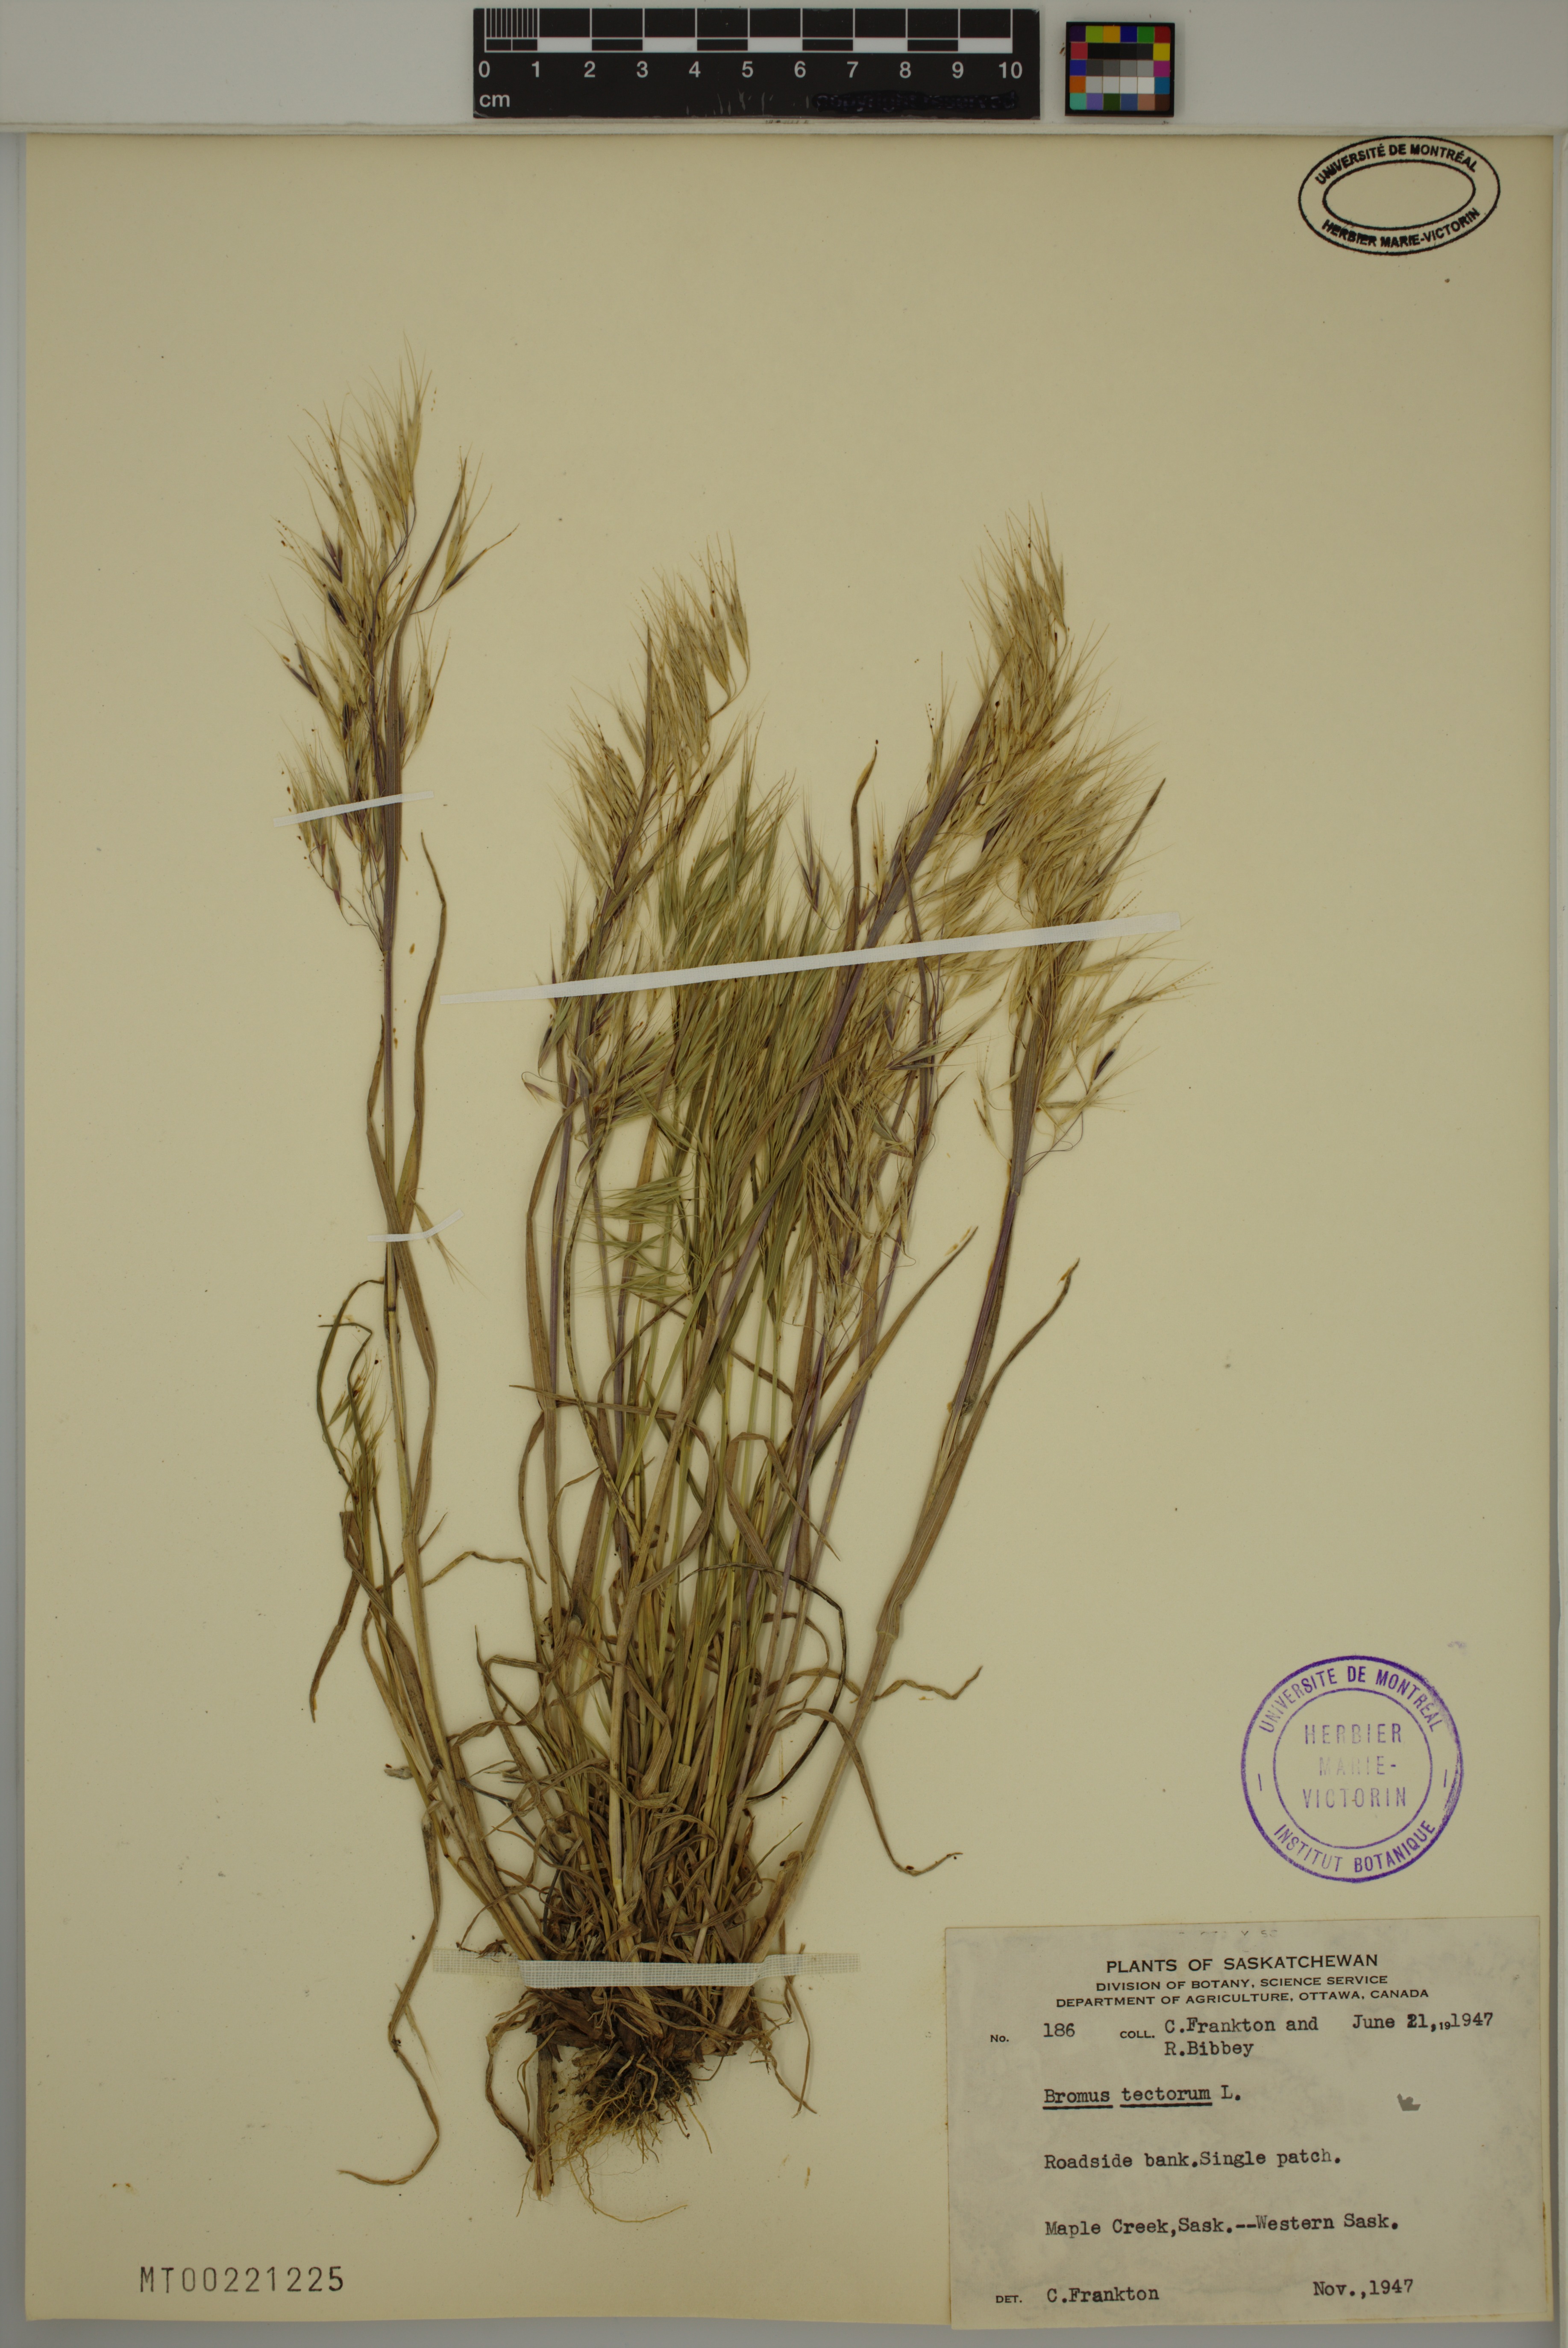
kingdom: Plantae
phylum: Tracheophyta
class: Liliopsida
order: Poales
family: Poaceae
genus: Bromus
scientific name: Bromus tectorum
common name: Cheatgrass
